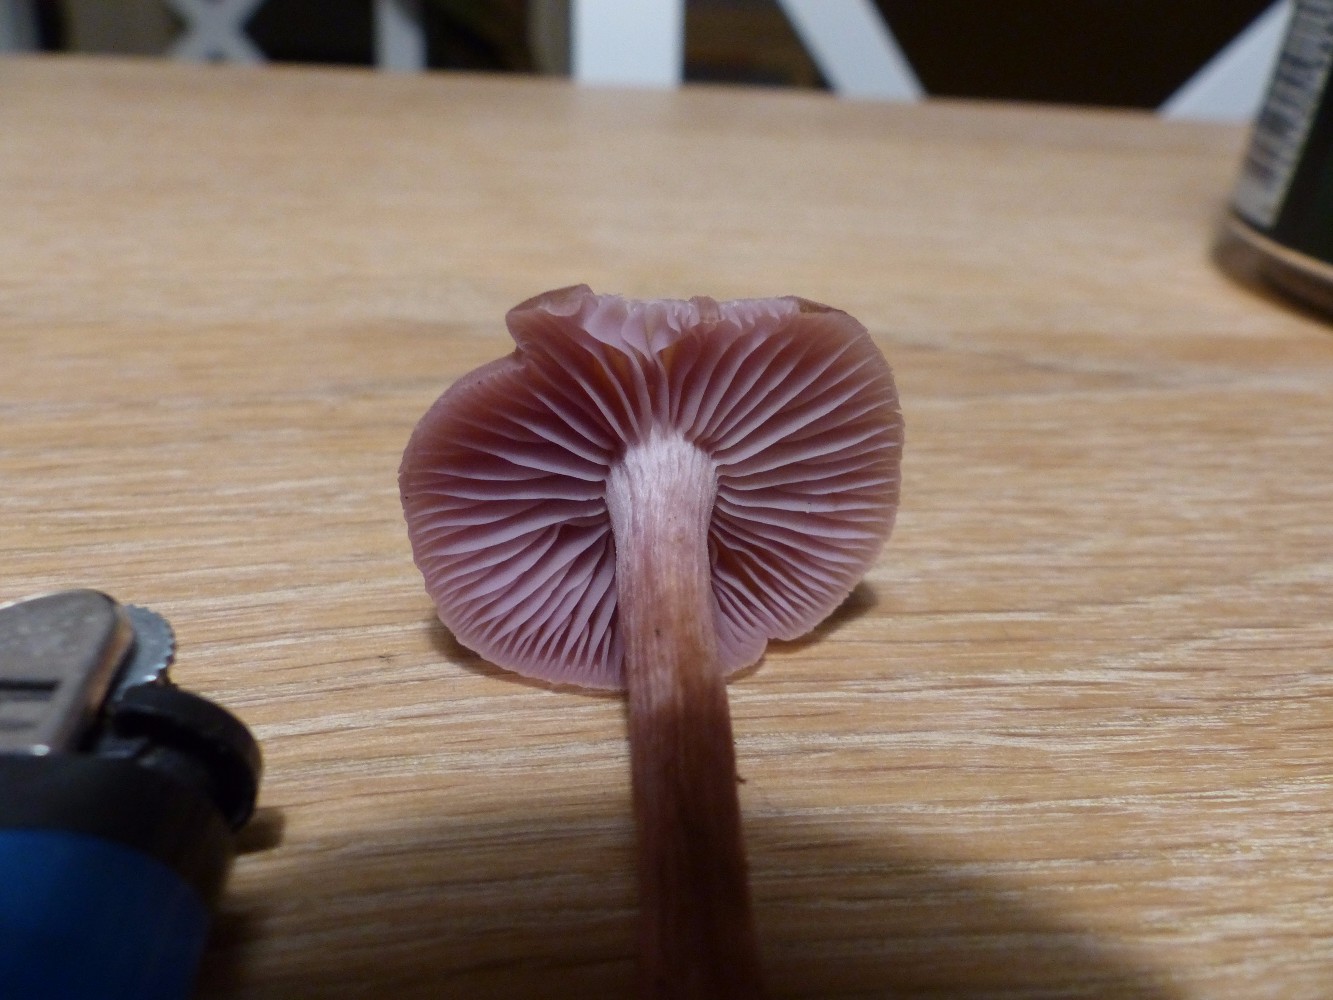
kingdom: Fungi
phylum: Basidiomycota
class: Agaricomycetes
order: Agaricales
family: Hydnangiaceae
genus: Laccaria
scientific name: Laccaria bicolor
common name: tvefarvet ametysthat
